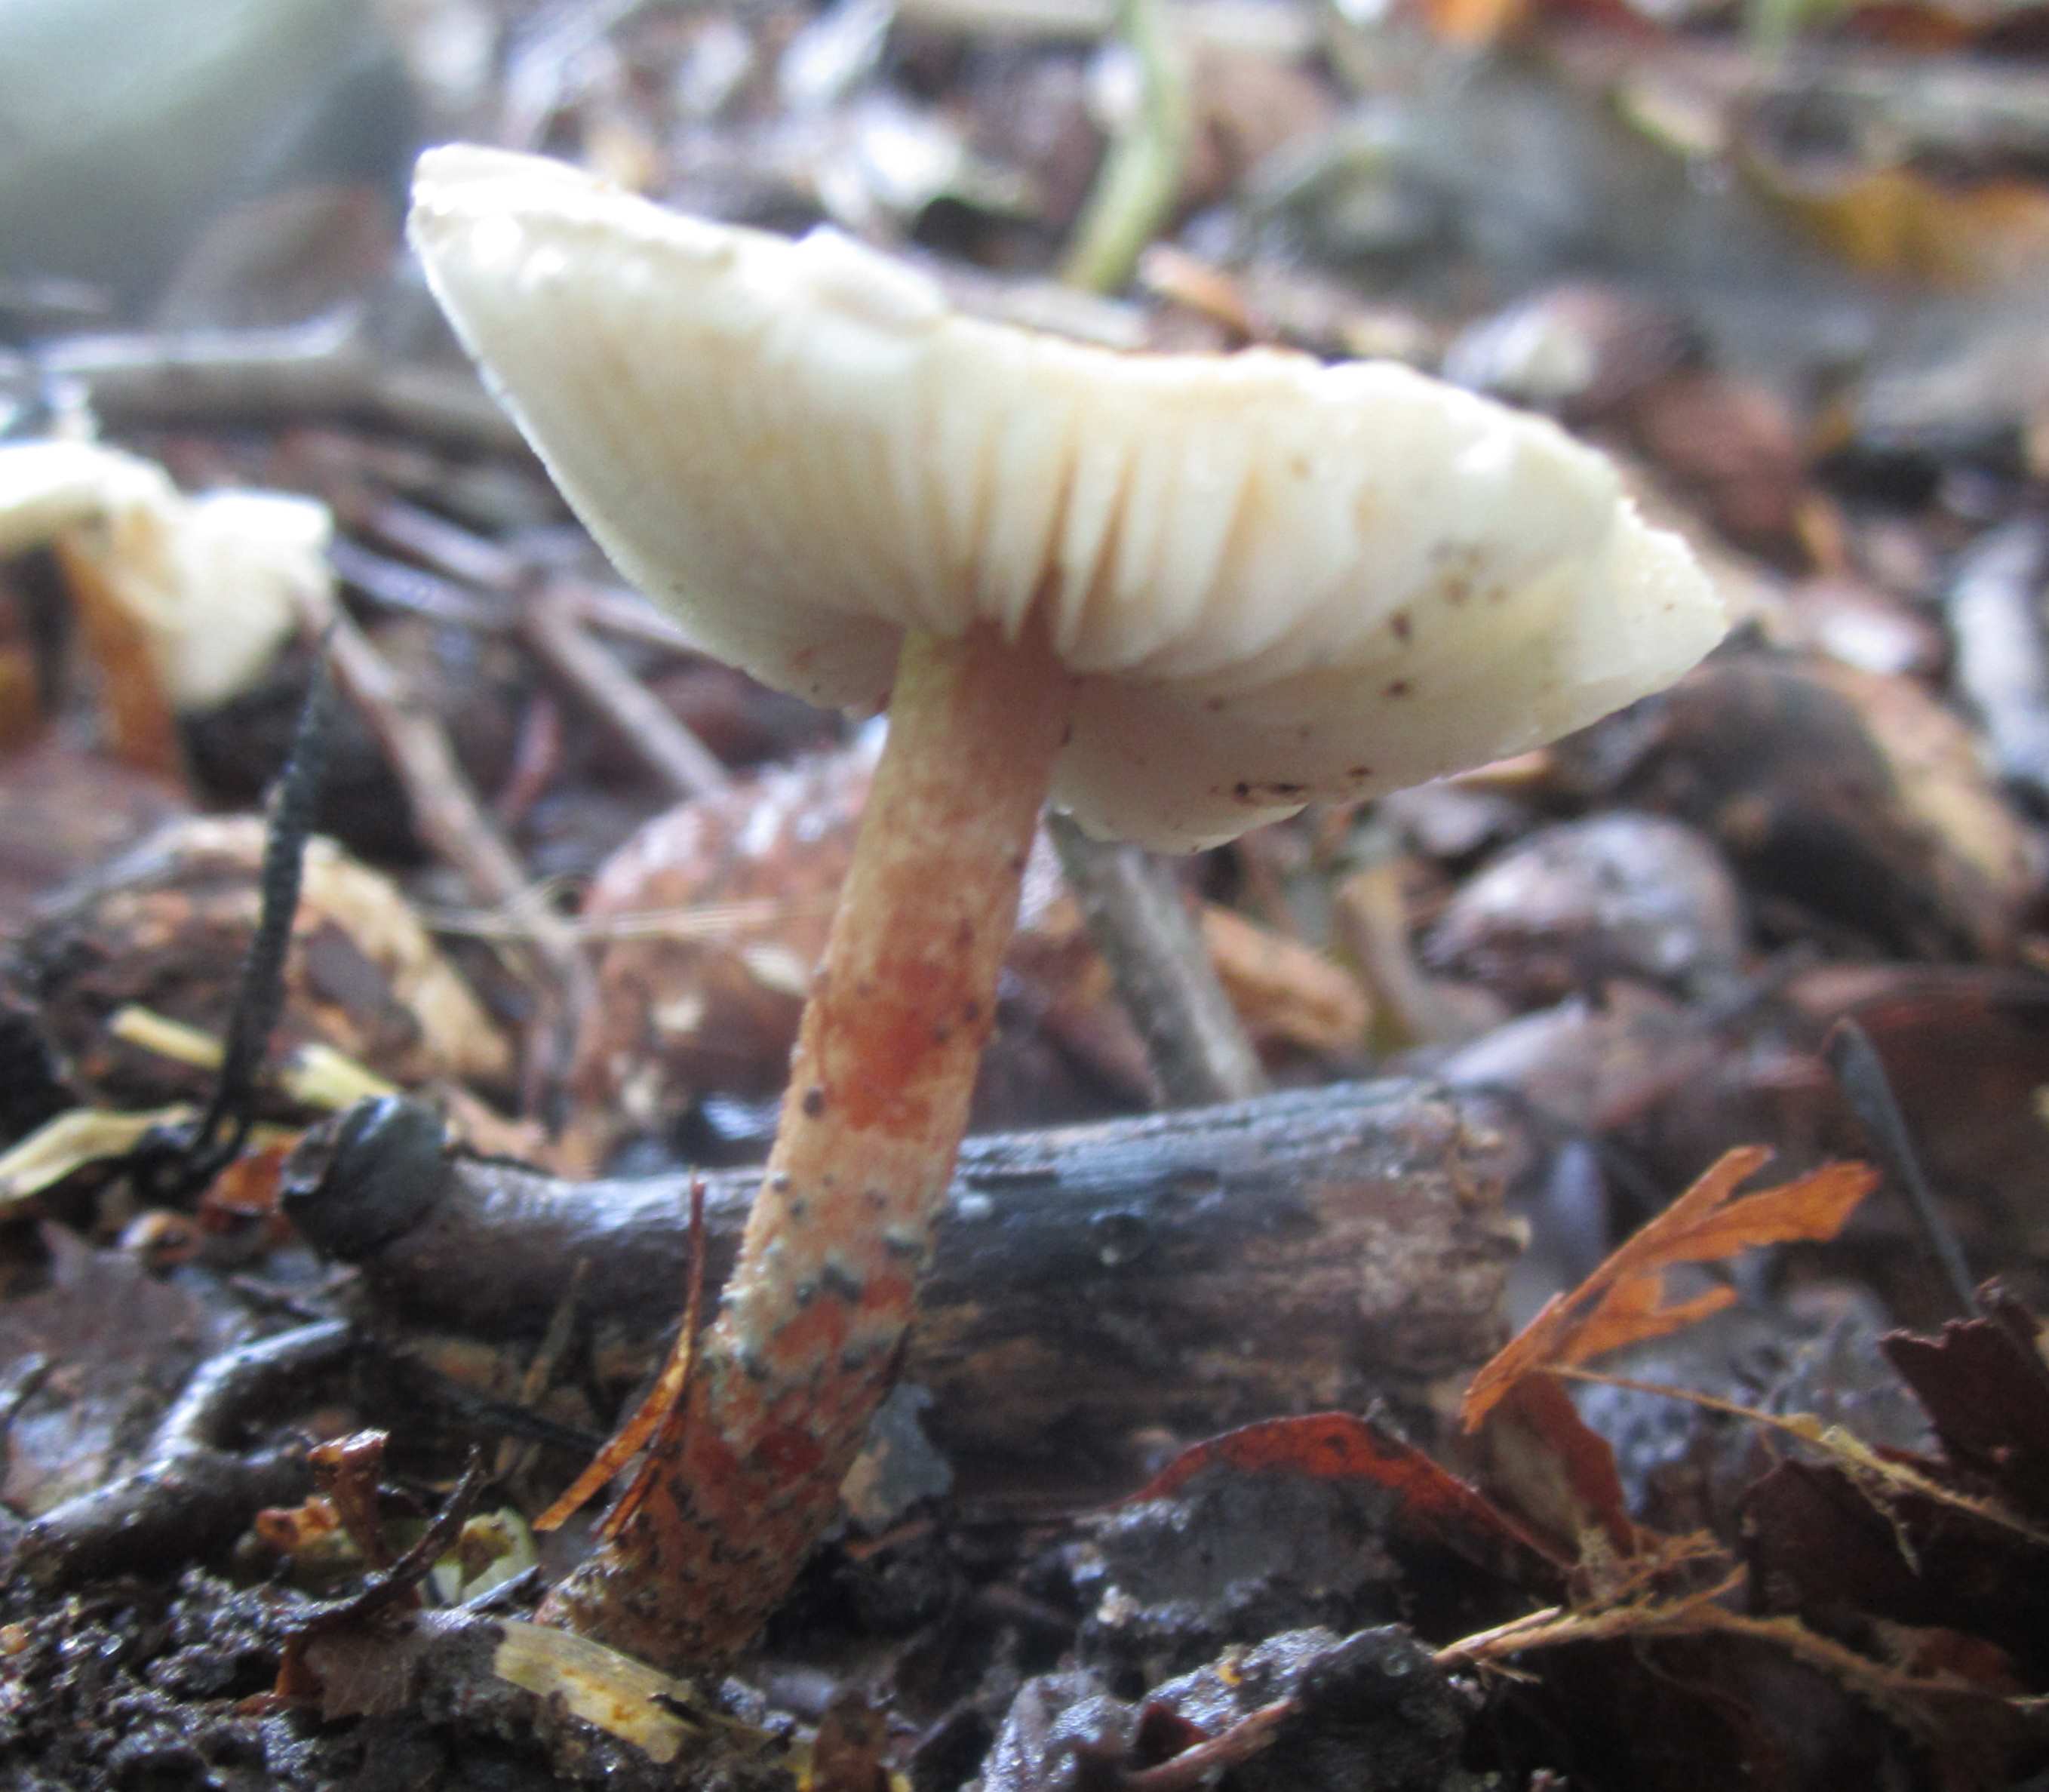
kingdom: Fungi
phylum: Basidiomycota
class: Agaricomycetes
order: Agaricales
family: Agaricaceae
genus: Lepiota
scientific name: Lepiota grangei
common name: grønskællet parasolhat
